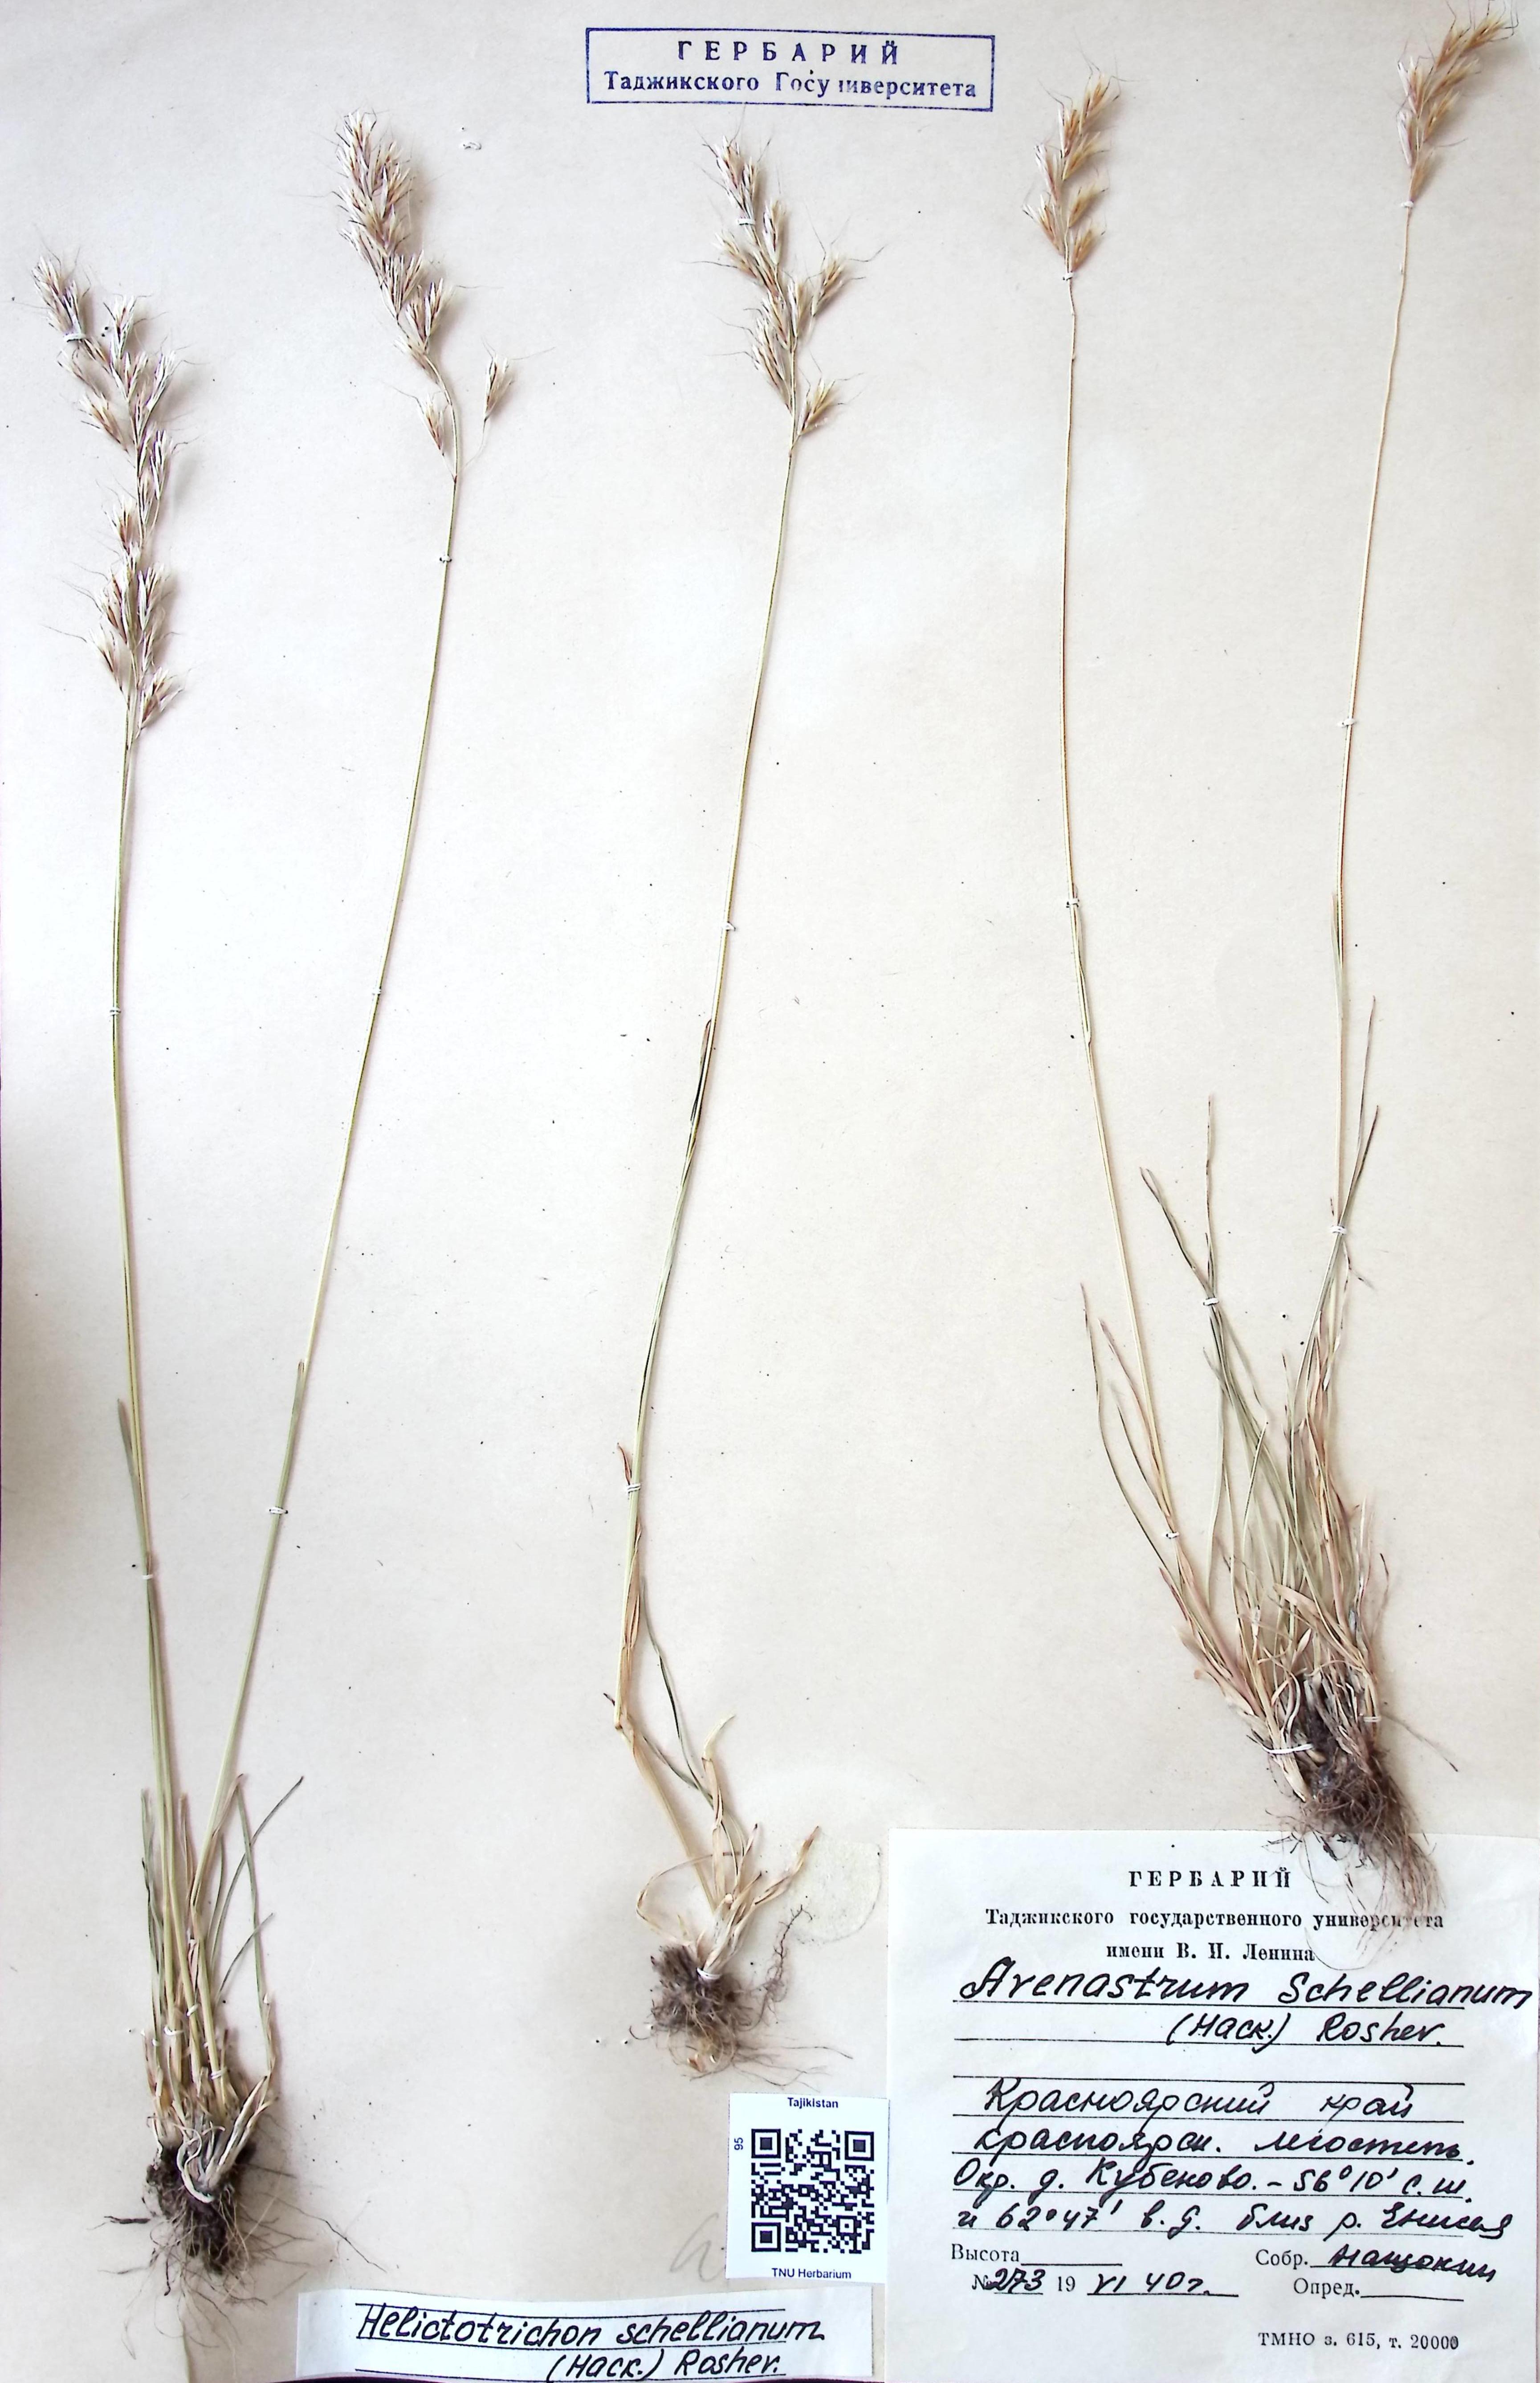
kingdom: Plantae
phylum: Tracheophyta
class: Liliopsida
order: Poales
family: Poaceae
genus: Helictochloa
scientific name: Helictochloa hookeri
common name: Hooker's alpine oatgrass
